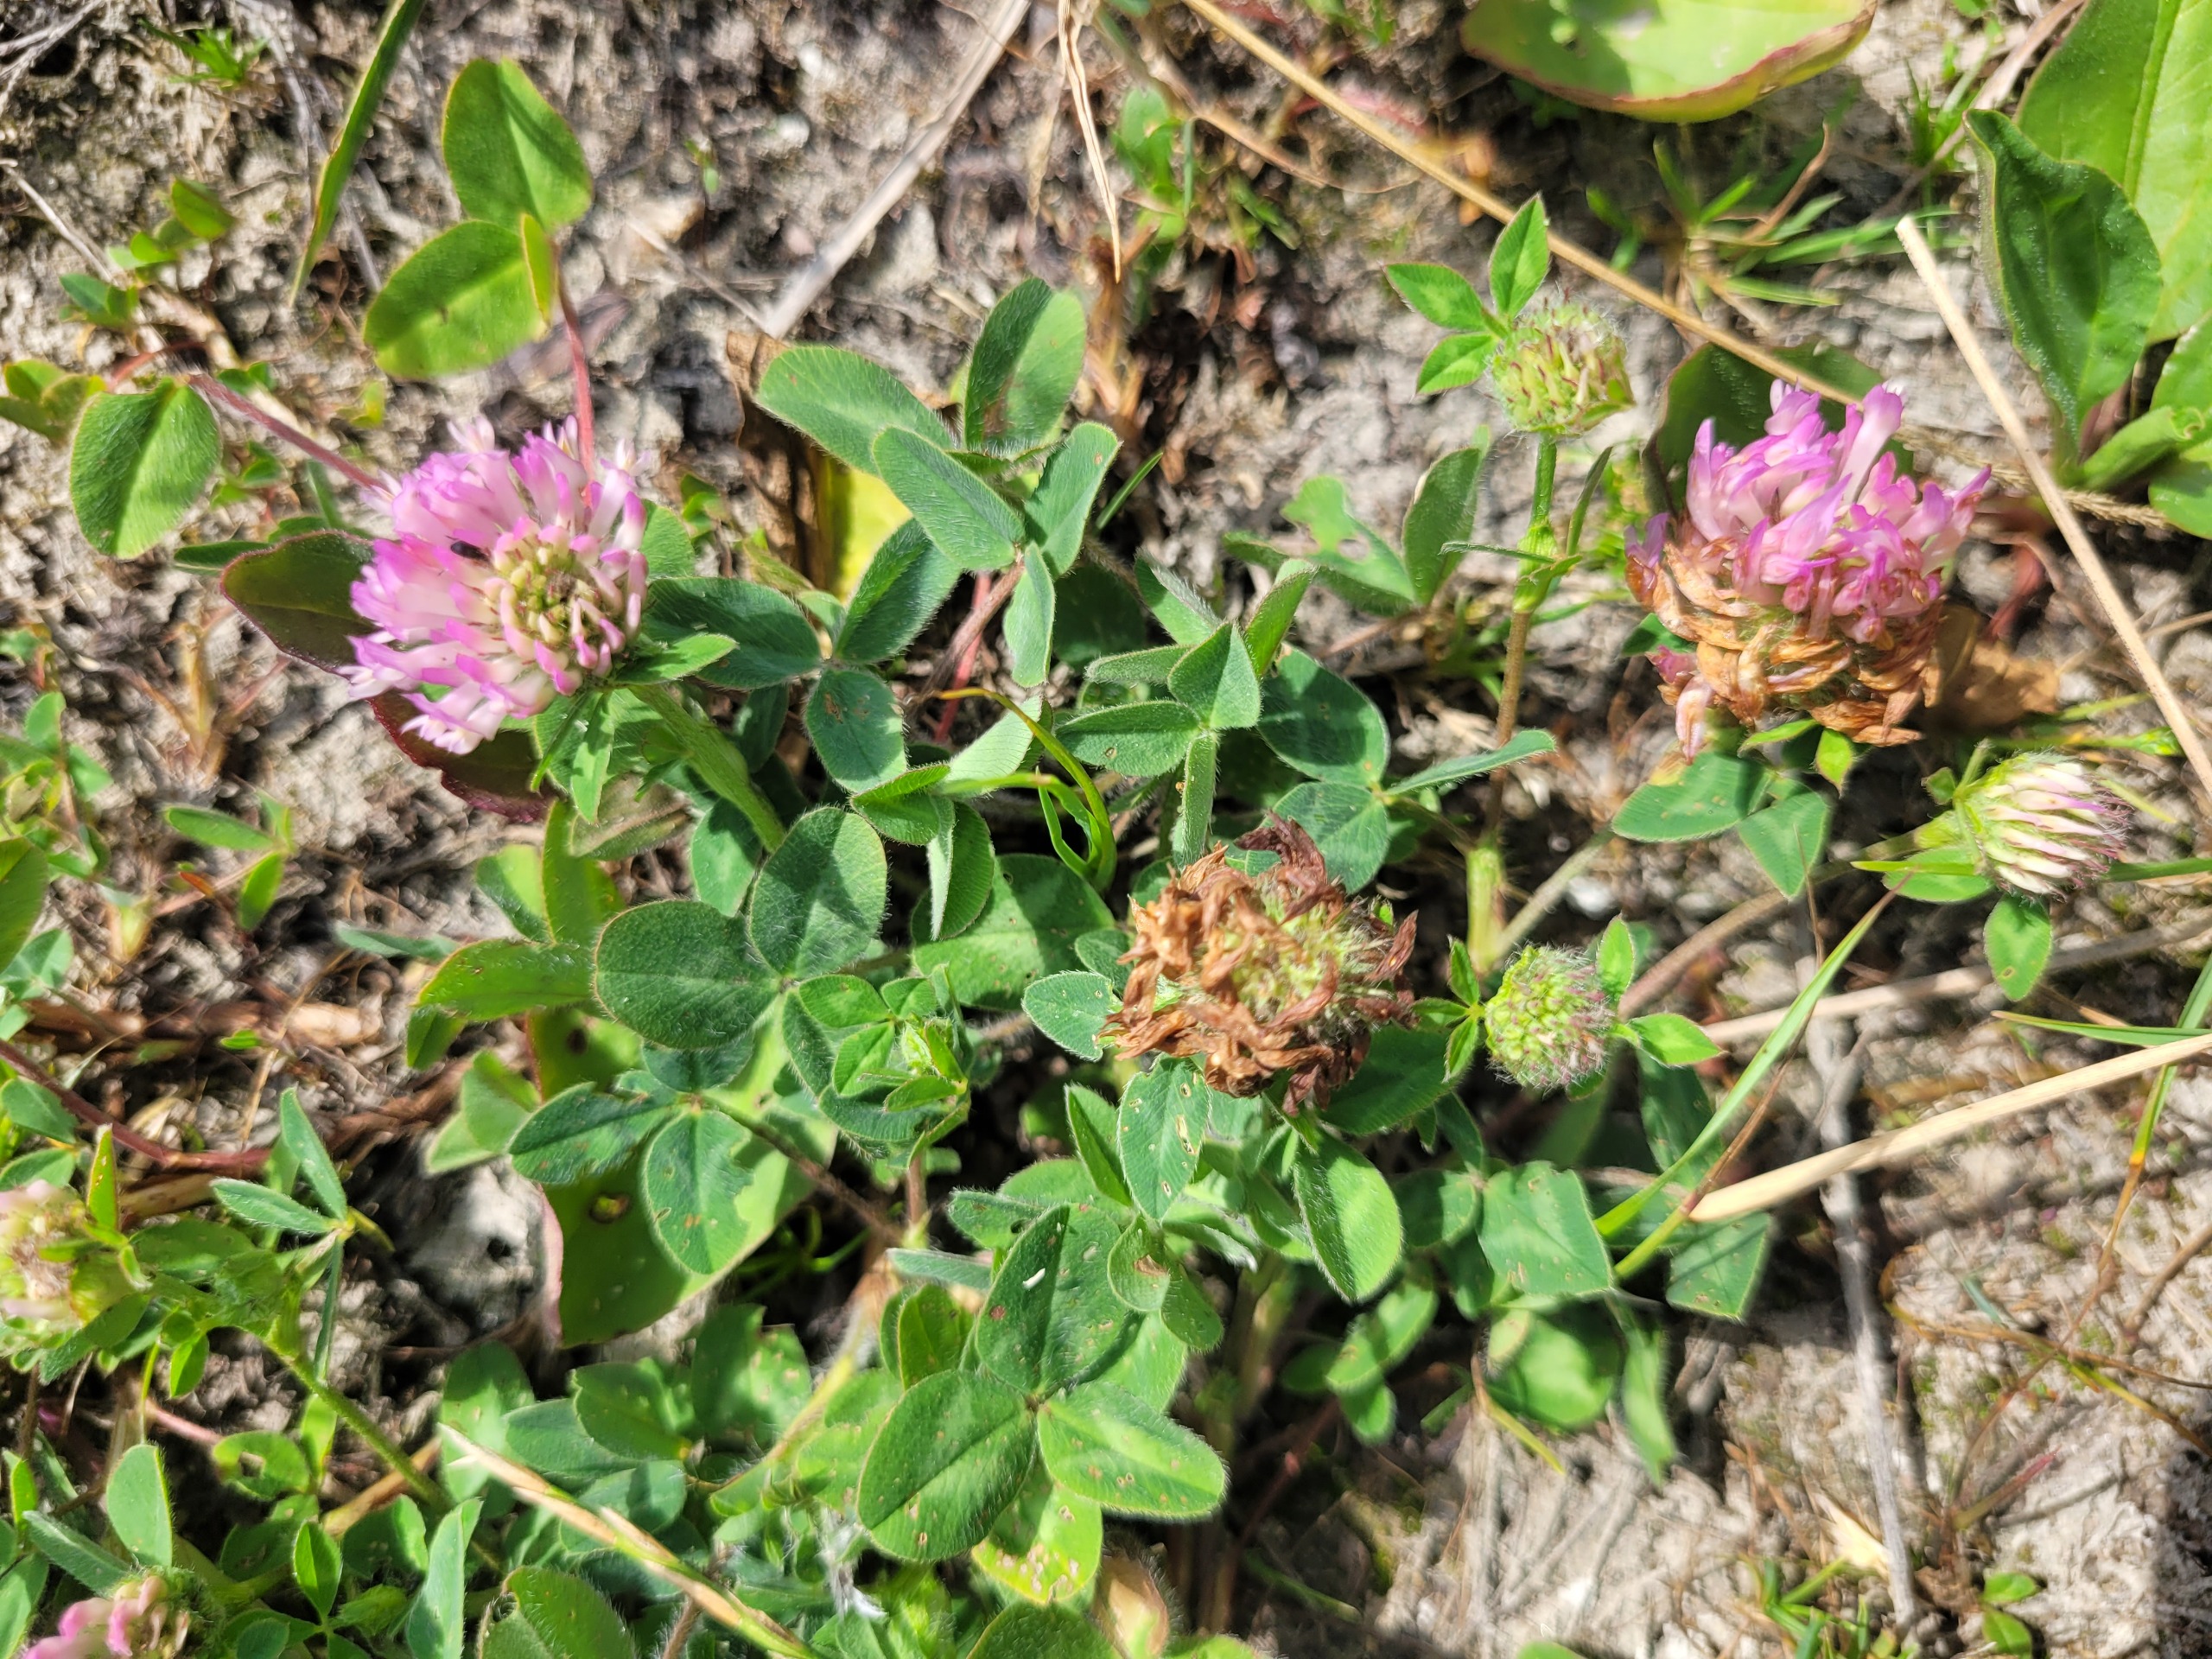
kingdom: Plantae
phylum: Tracheophyta
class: Magnoliopsida
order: Fabales
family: Fabaceae
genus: Trifolium
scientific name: Trifolium pratense
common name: Rød-kløver
